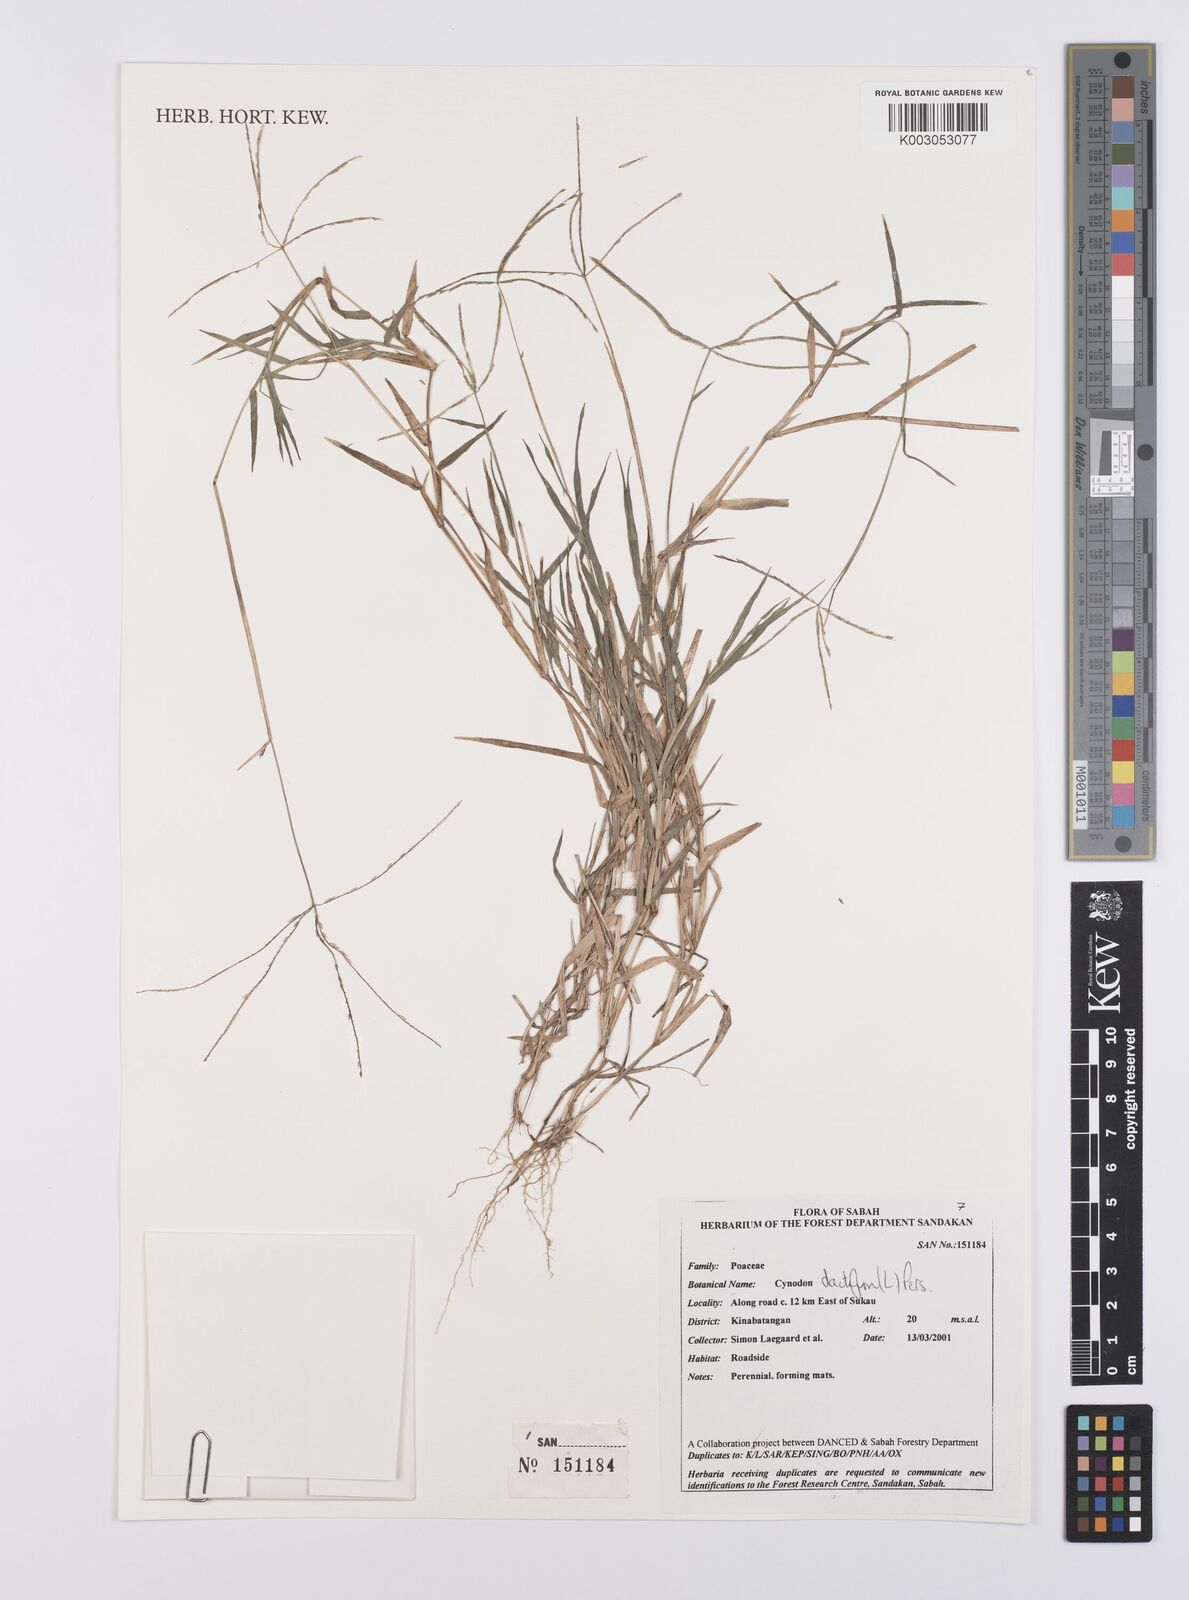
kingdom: Plantae
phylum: Tracheophyta
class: Liliopsida
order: Poales
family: Poaceae
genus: Cynodon
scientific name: Cynodon dactylon
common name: Bermuda grass
